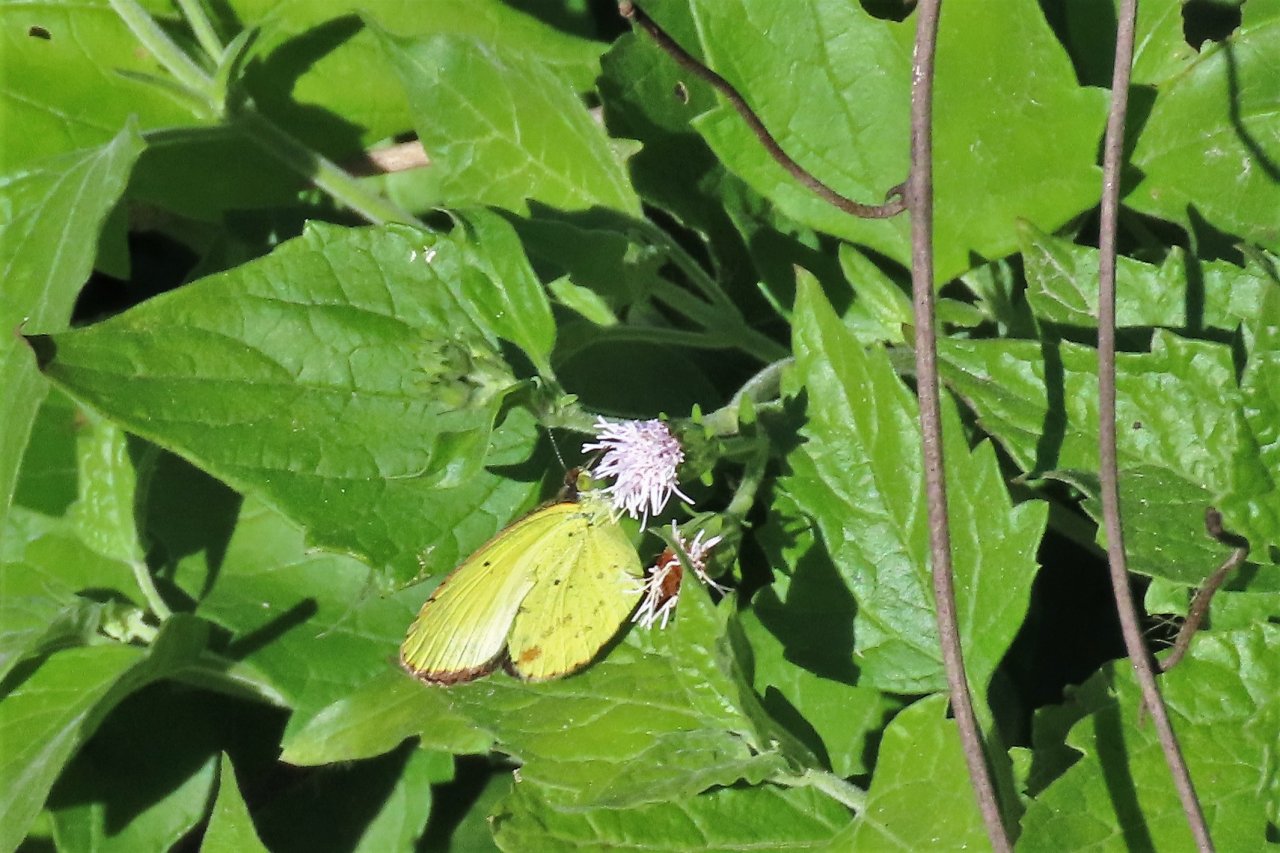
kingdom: Animalia
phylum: Arthropoda
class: Insecta
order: Lepidoptera
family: Pieridae
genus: Pyrisitia
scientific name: Pyrisitia lisa
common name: Little Yellow
